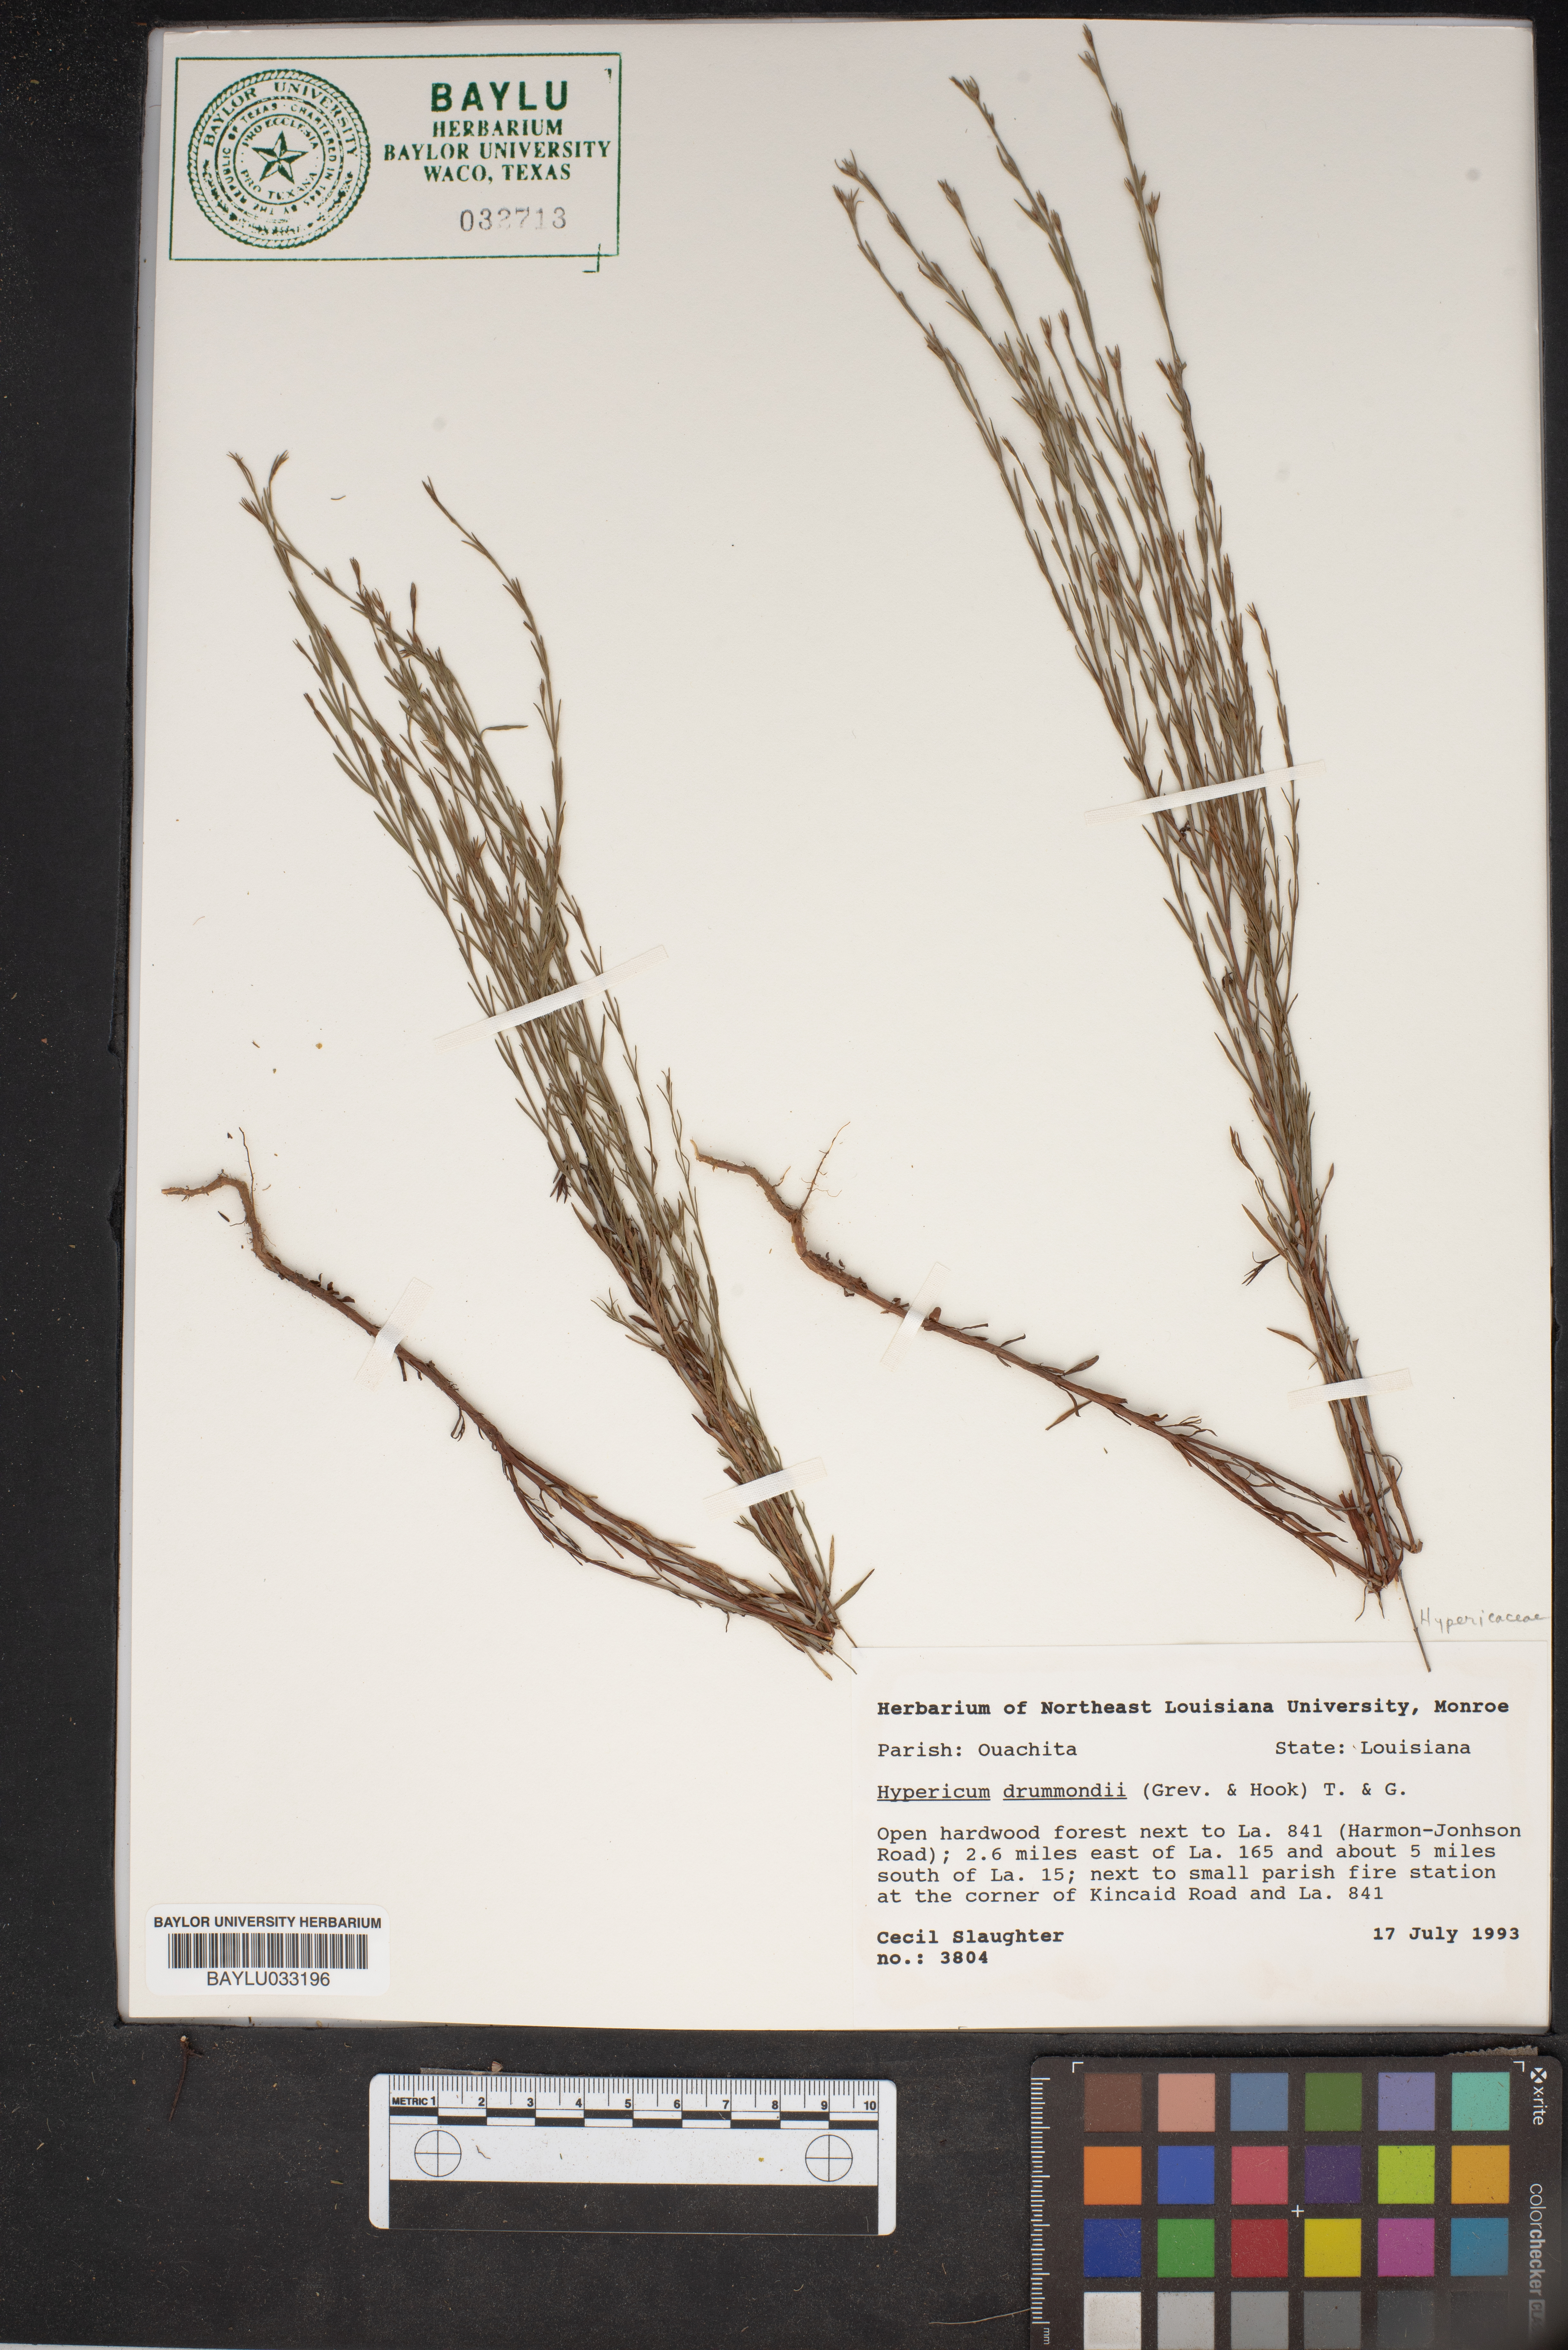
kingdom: Plantae
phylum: Tracheophyta
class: Magnoliopsida
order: Malpighiales
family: Hypericaceae
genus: Hypericum
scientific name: Hypericum drummondii
